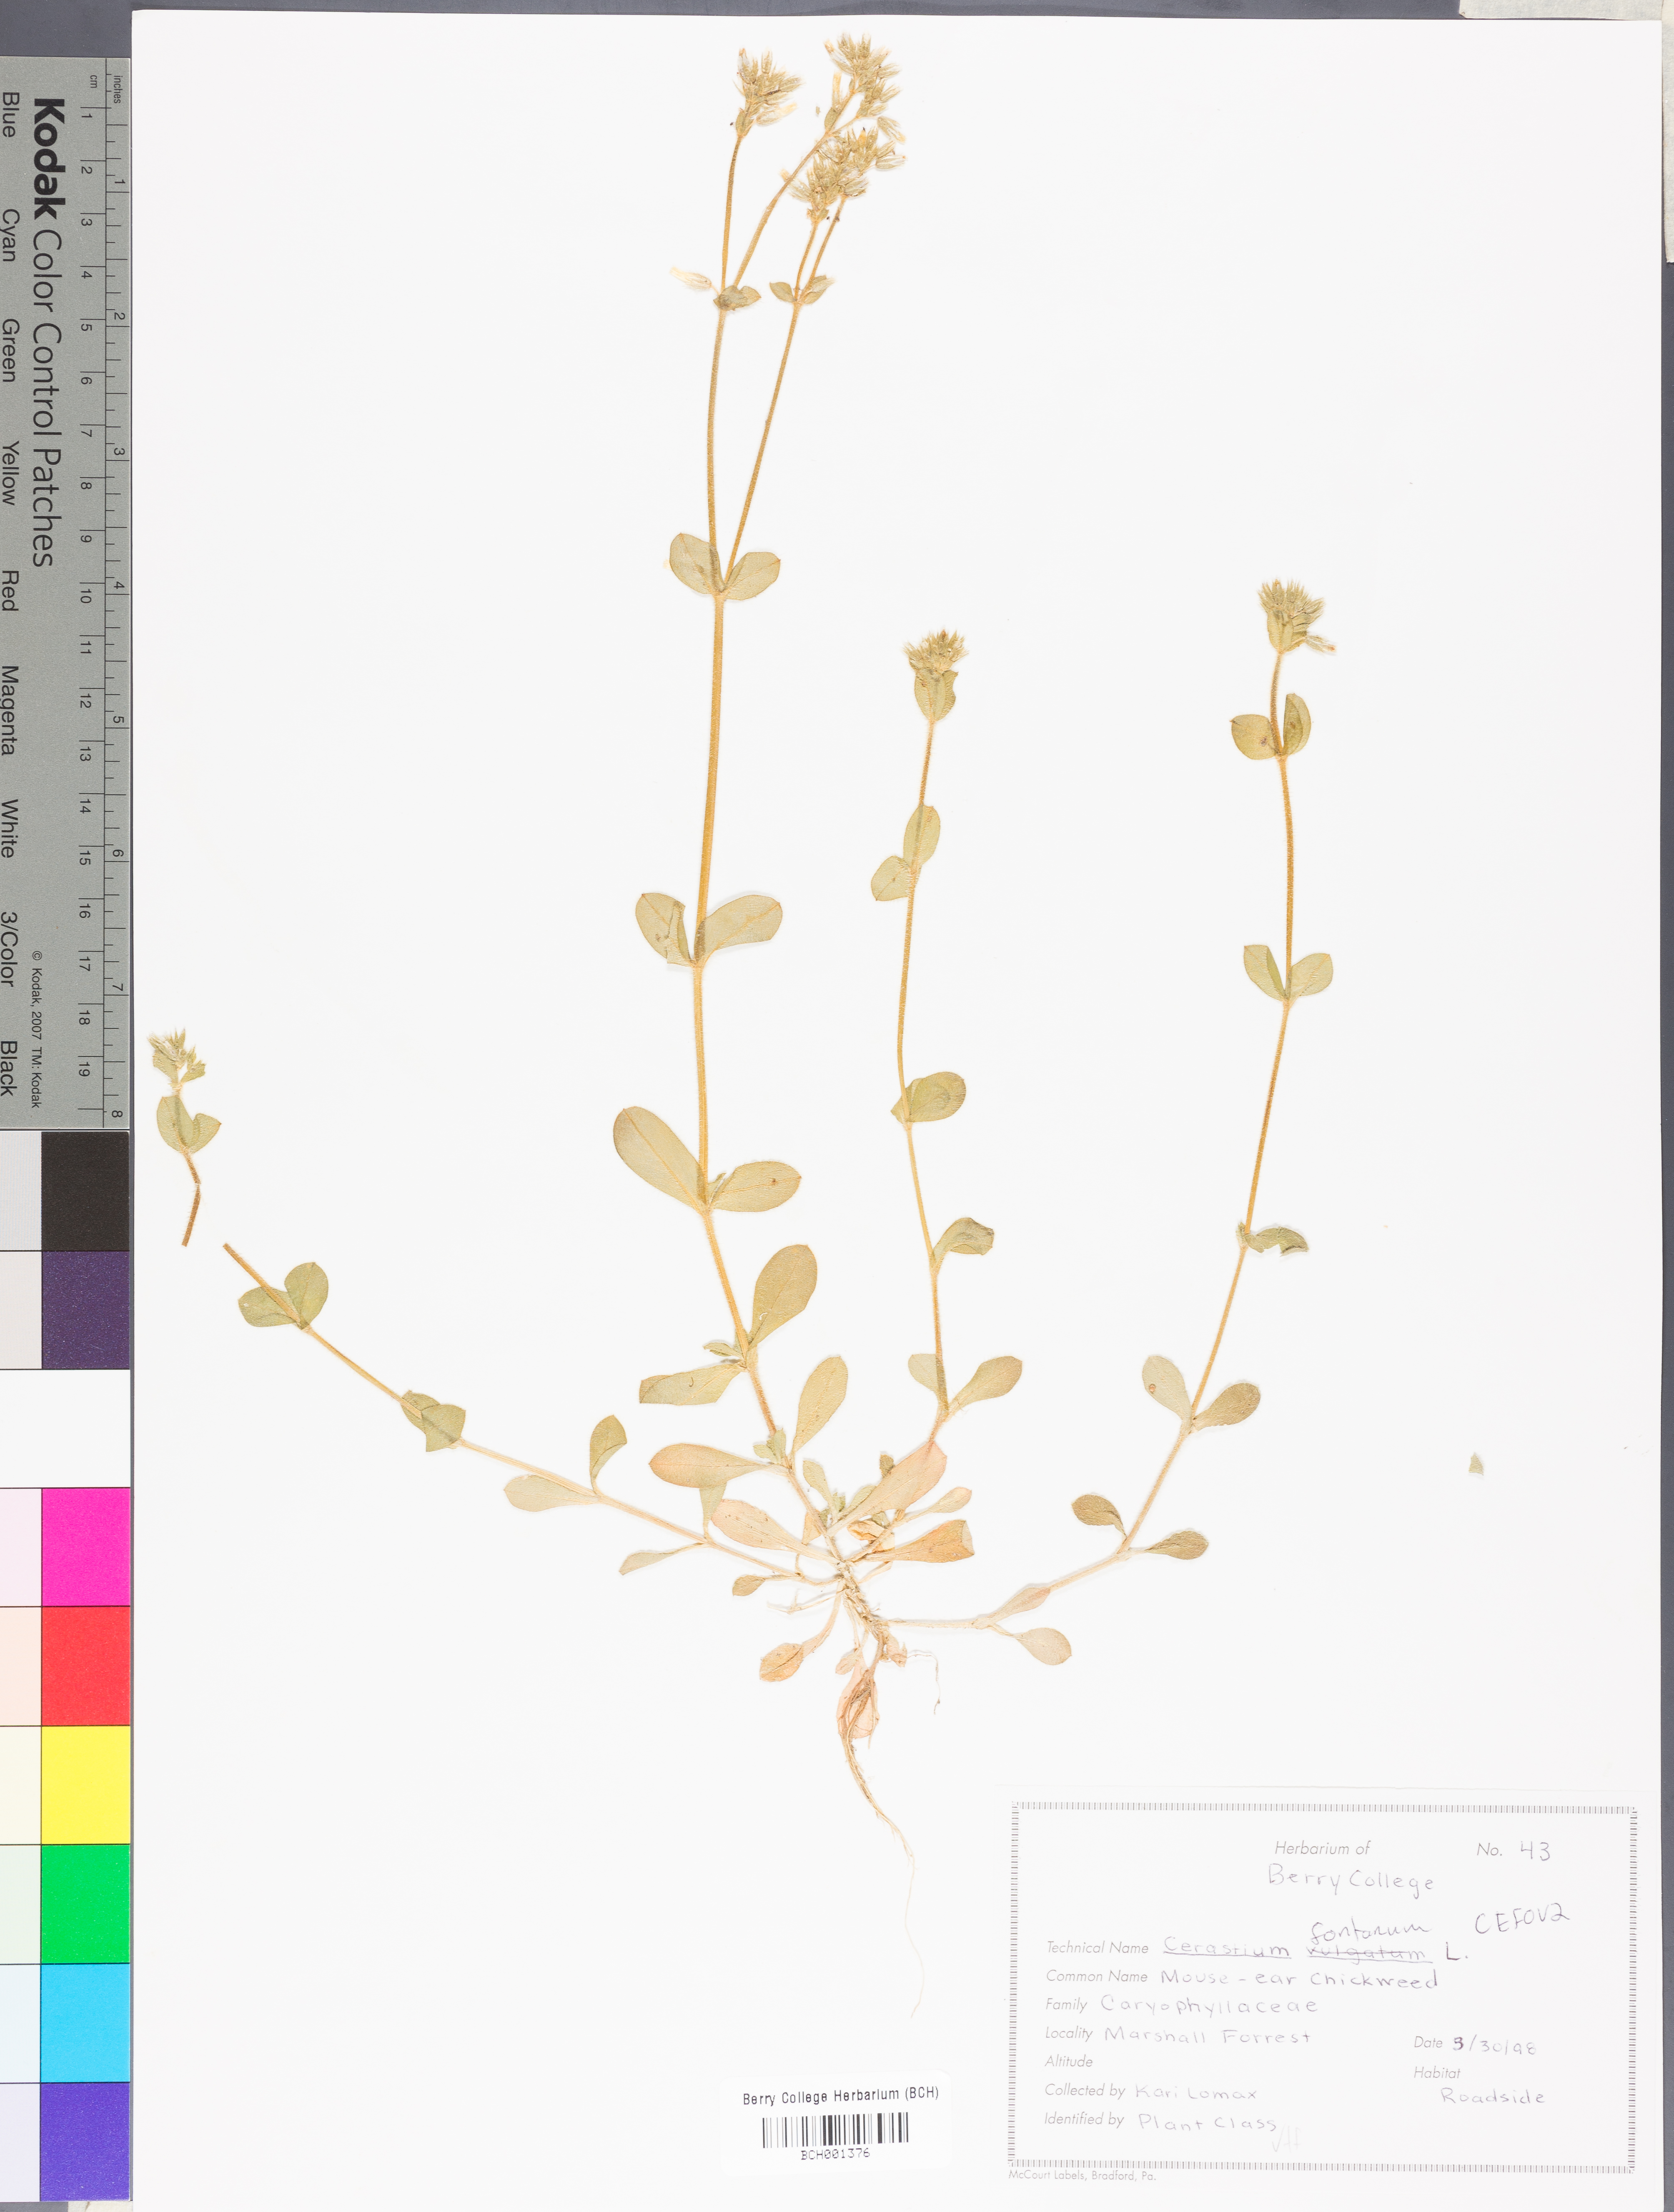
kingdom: Plantae
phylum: Tracheophyta
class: Magnoliopsida
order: Caryophyllales
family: Caryophyllaceae
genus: Cerastium
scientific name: Cerastium holosteoides
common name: Big chickweed
